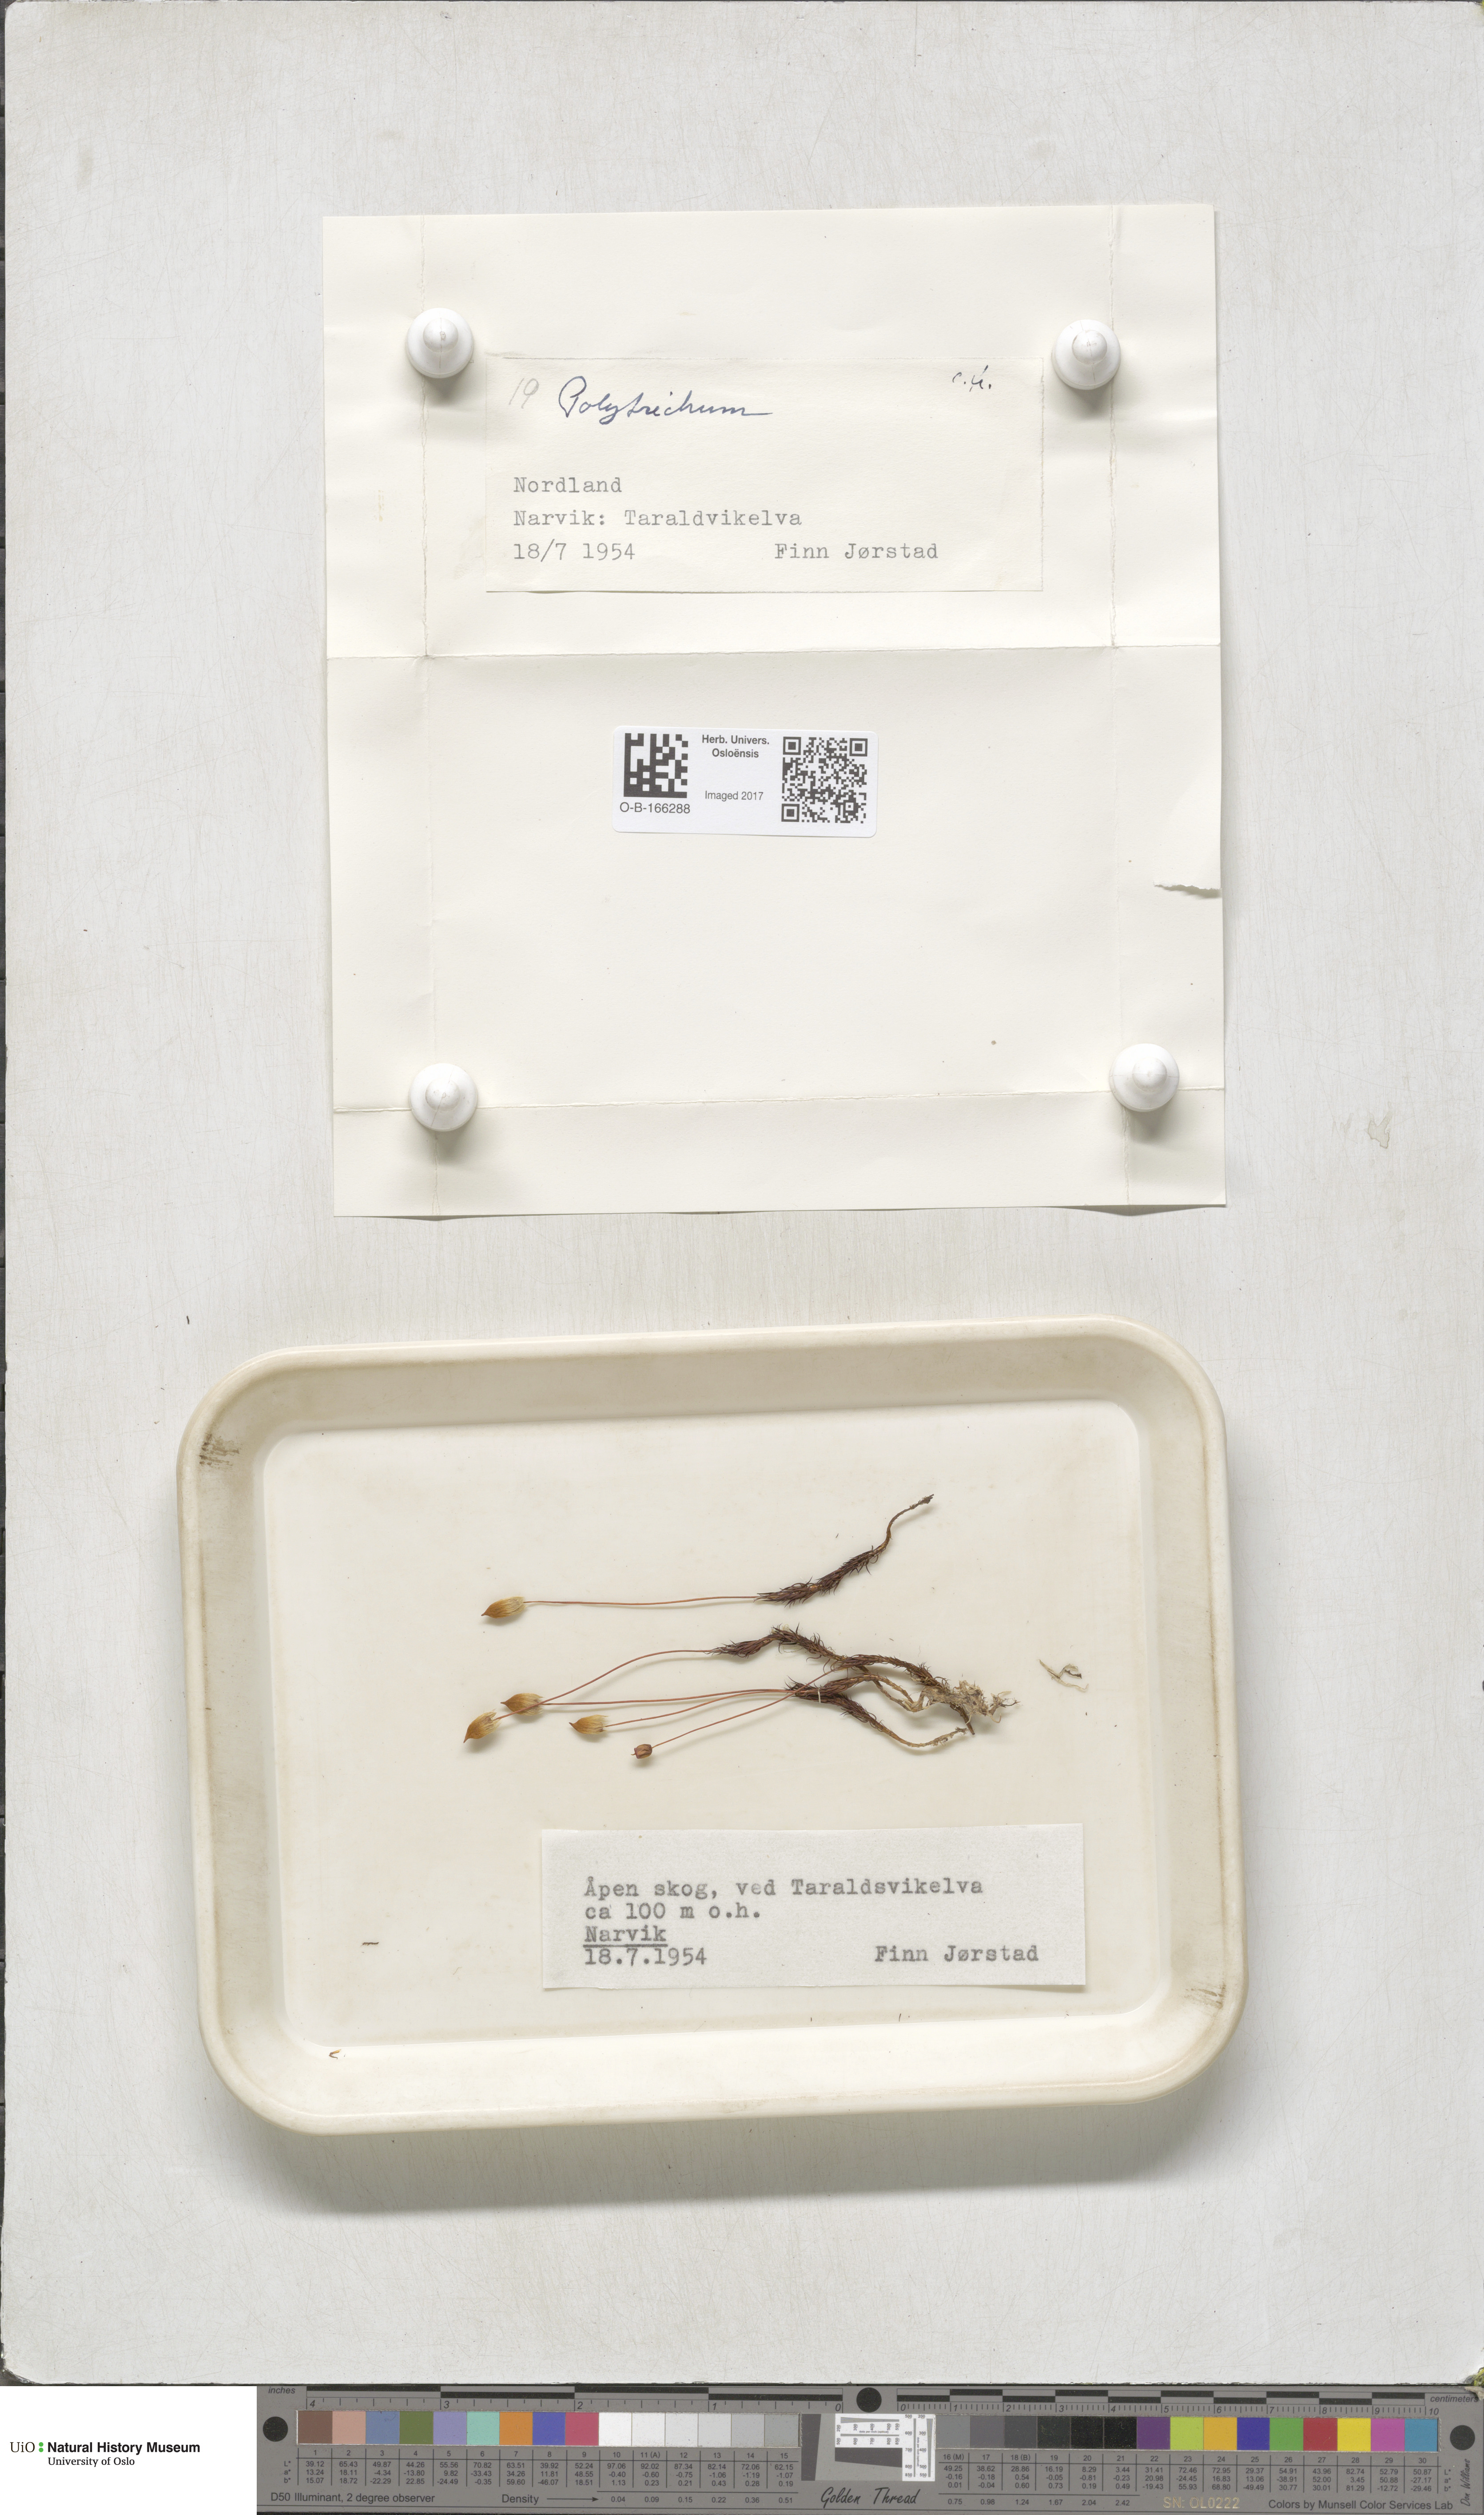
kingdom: Plantae
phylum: Bryophyta
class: Polytrichopsida
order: Polytrichales
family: Polytrichaceae
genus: Polytrichum
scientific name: Polytrichum
